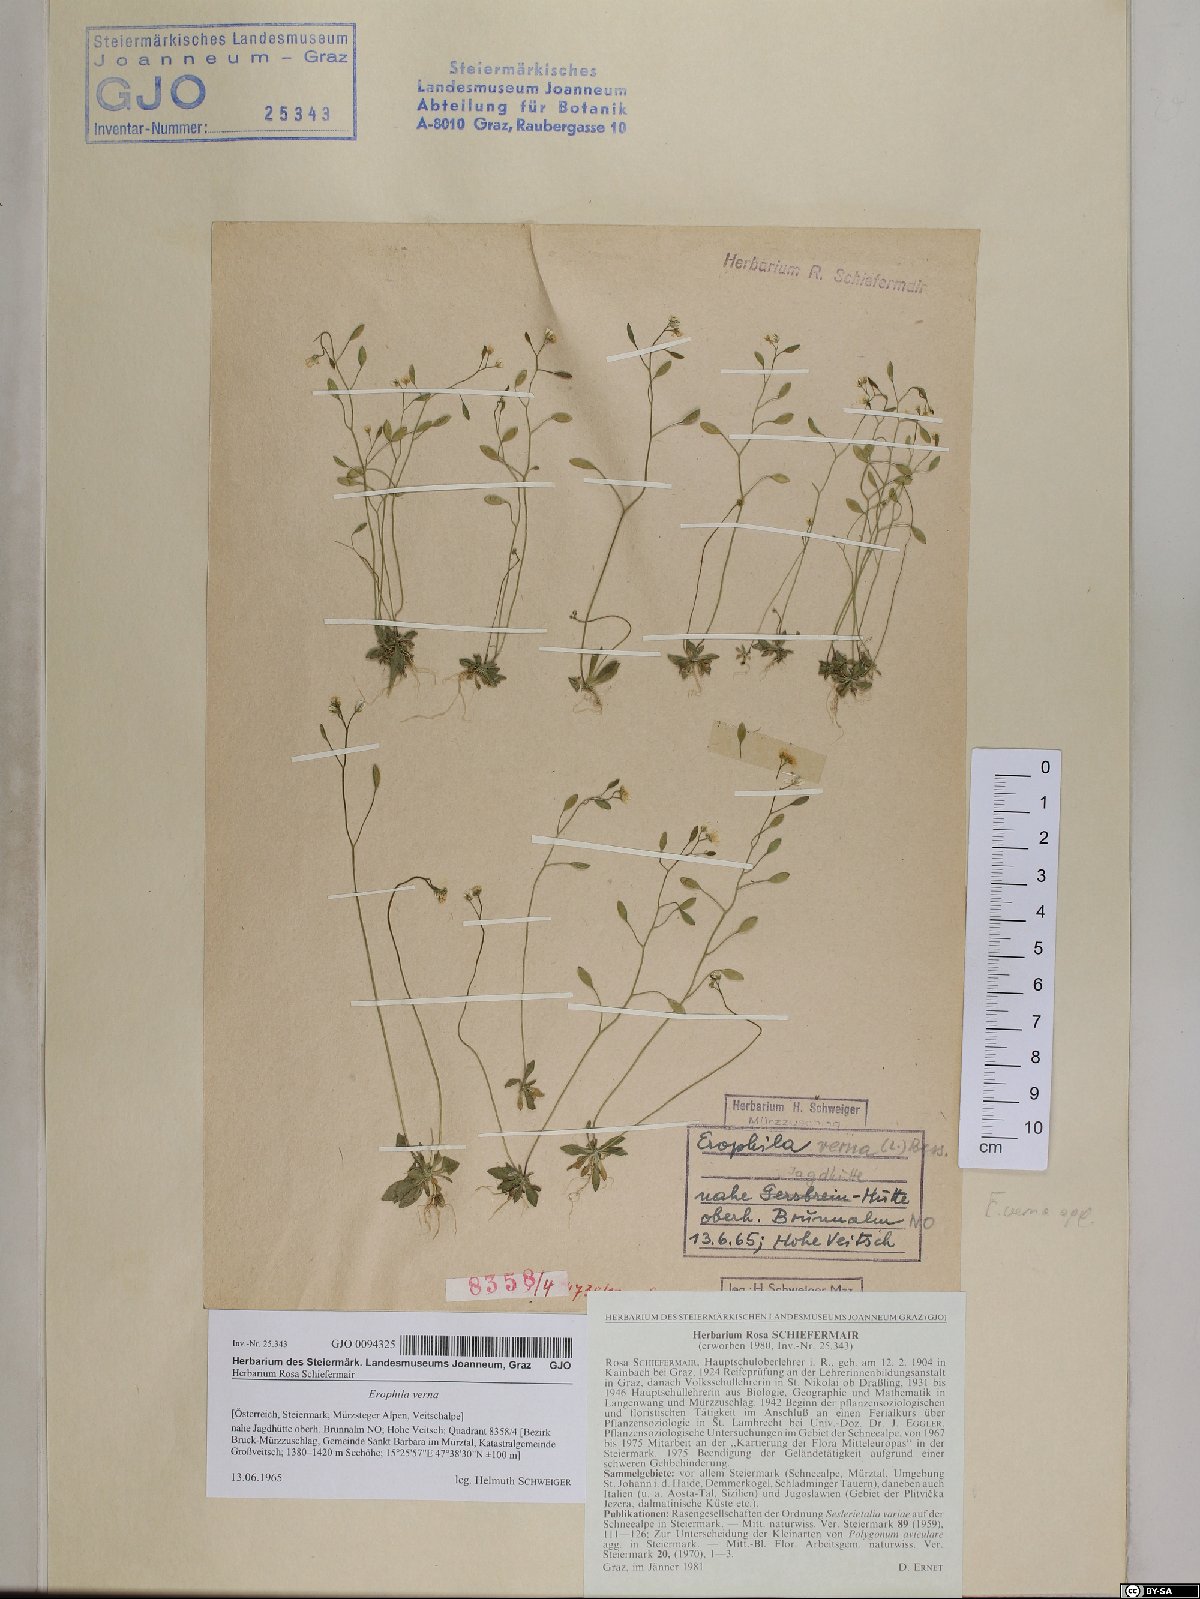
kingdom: Plantae
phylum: Tracheophyta
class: Magnoliopsida
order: Brassicales
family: Brassicaceae
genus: Draba
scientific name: Draba verna
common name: Spring draba
